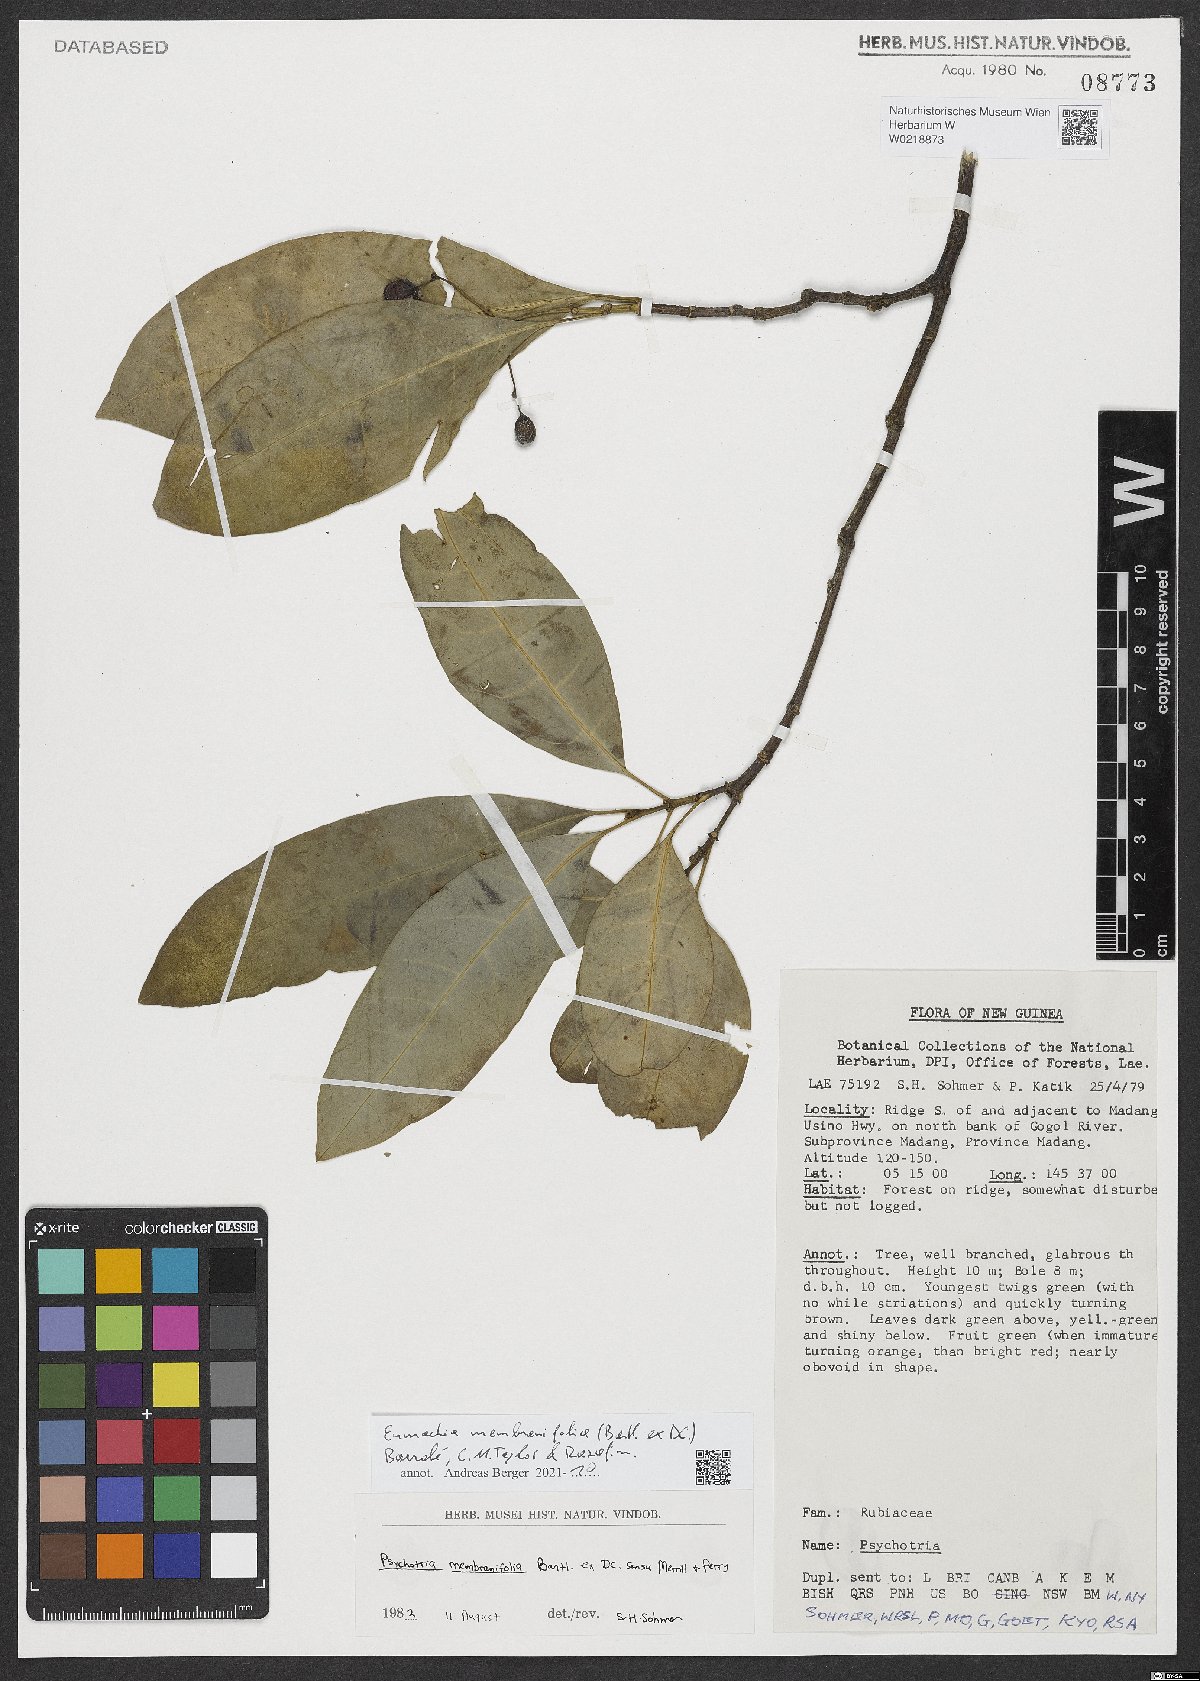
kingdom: Plantae
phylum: Tracheophyta
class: Magnoliopsida
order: Gentianales
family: Rubiaceae
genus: Eumachia
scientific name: Eumachia membranifolia
